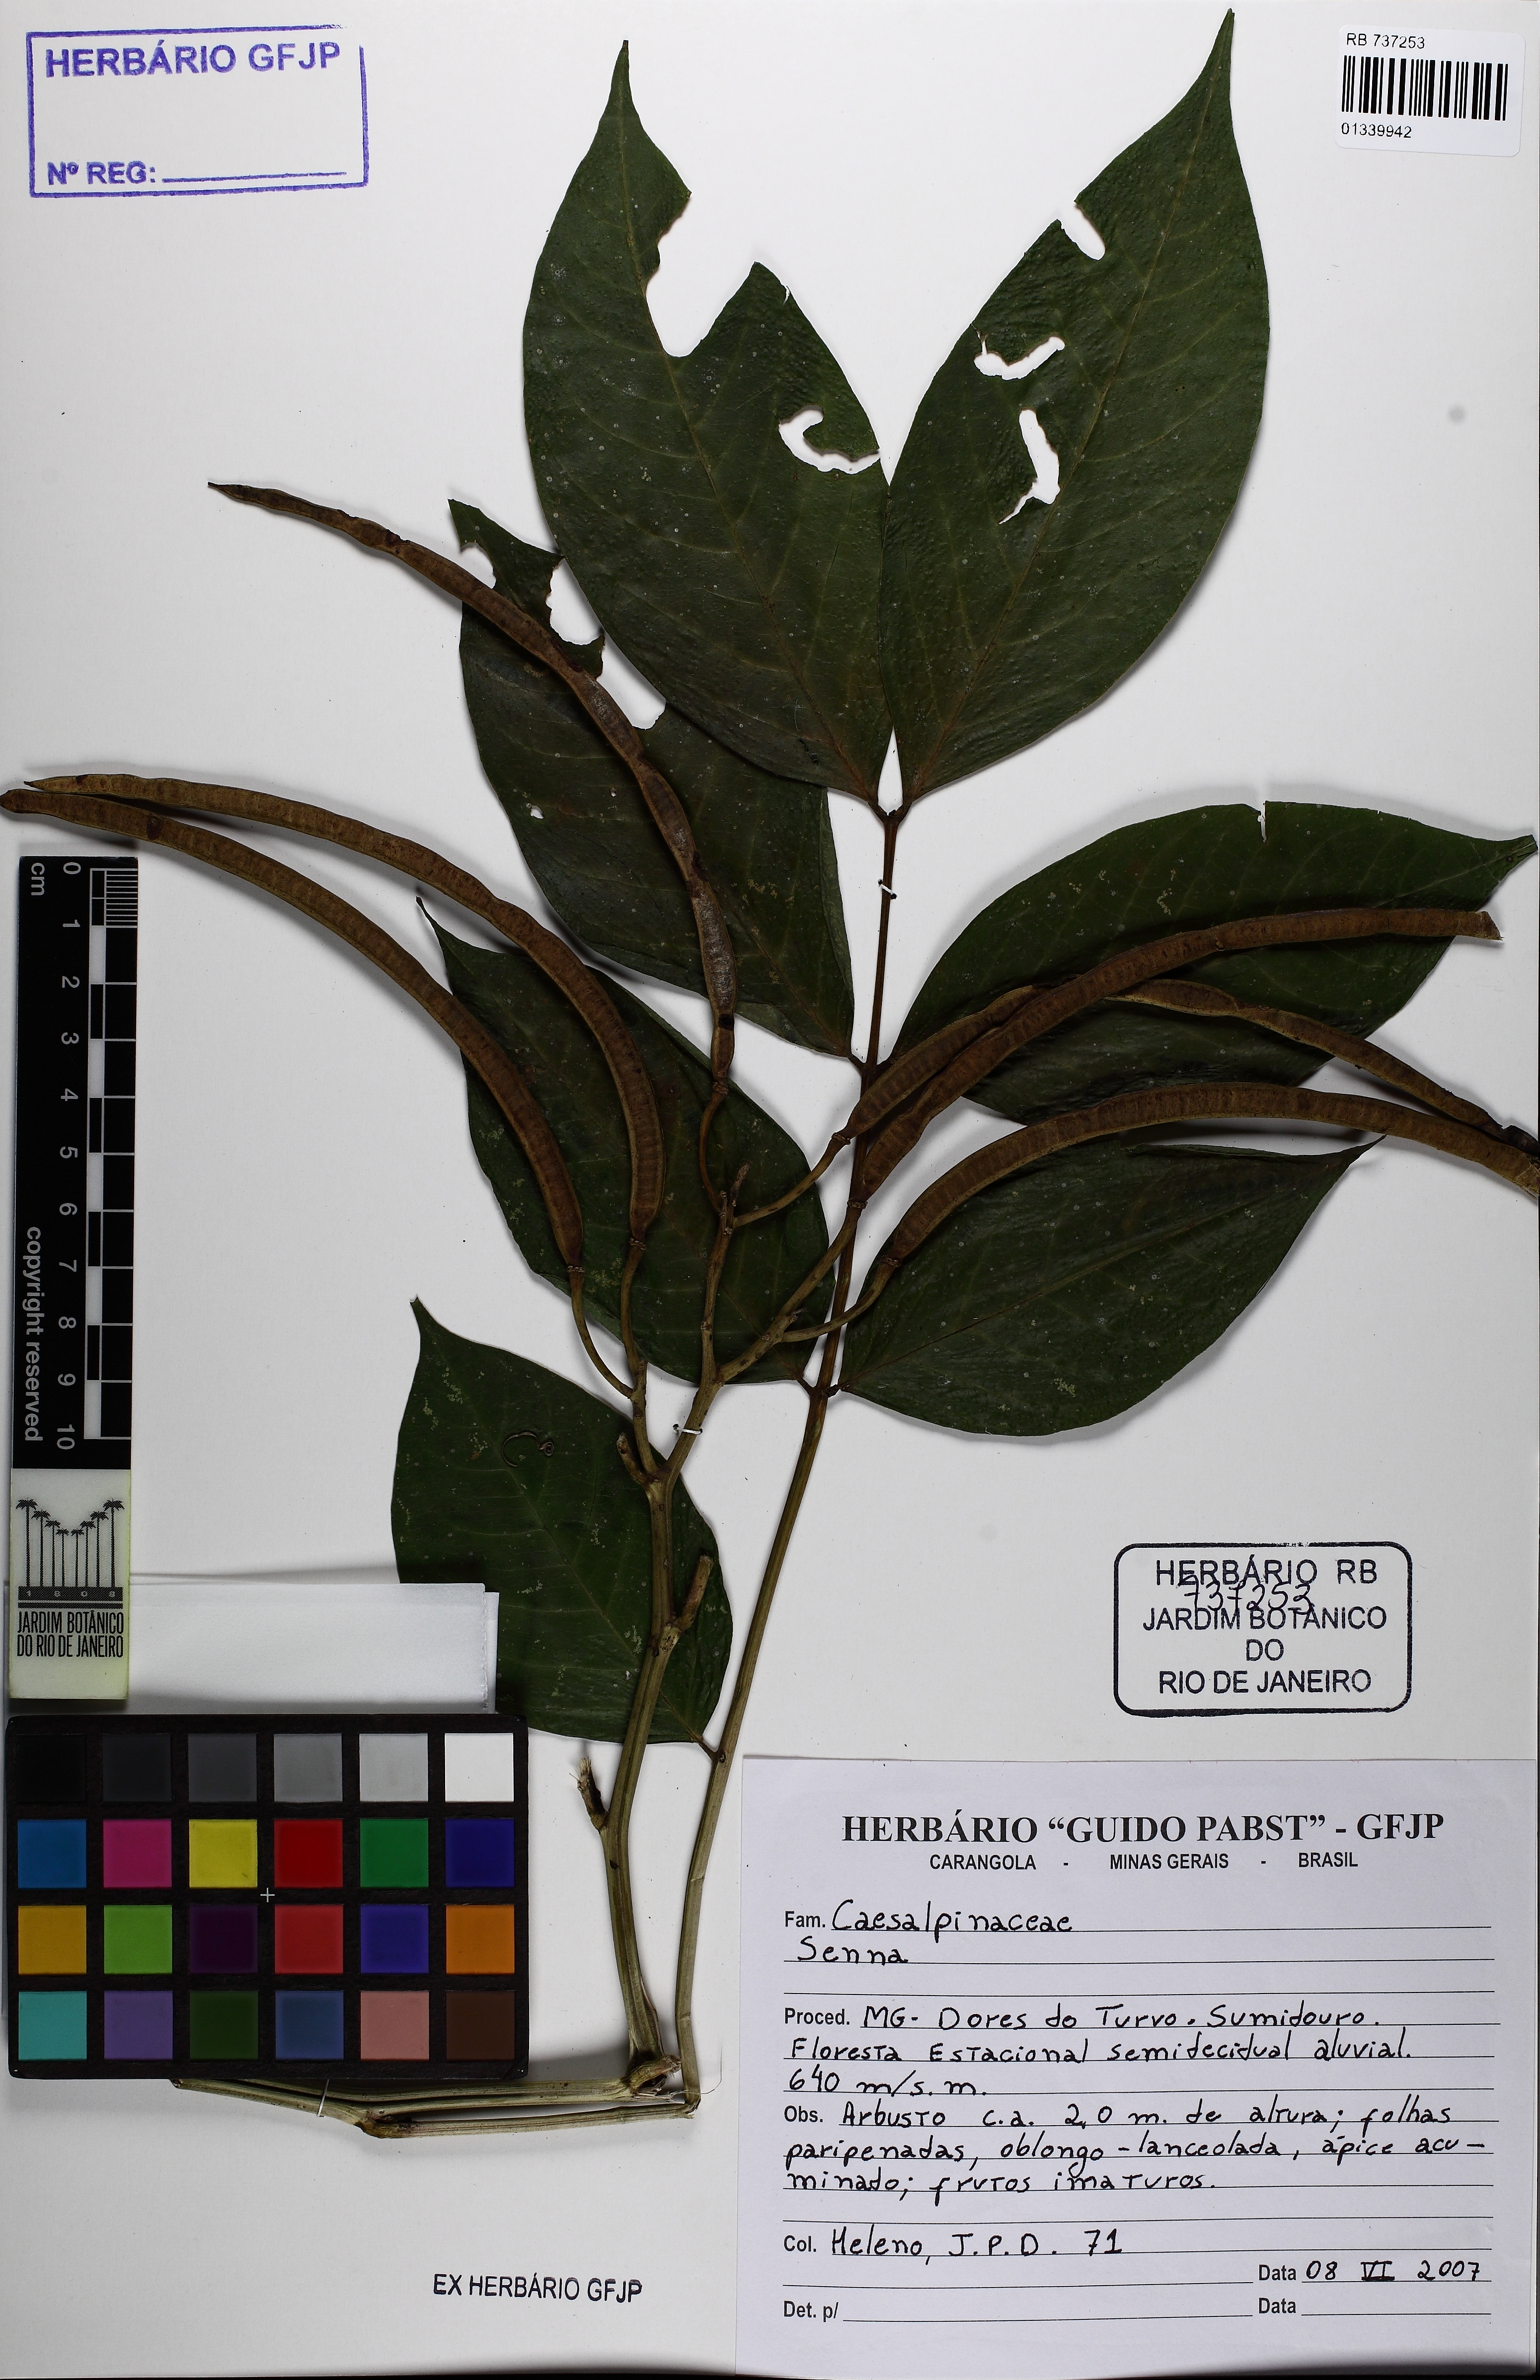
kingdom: Plantae
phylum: Tracheophyta
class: Magnoliopsida
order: Fabales
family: Fabaceae
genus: Senna
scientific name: Senna
